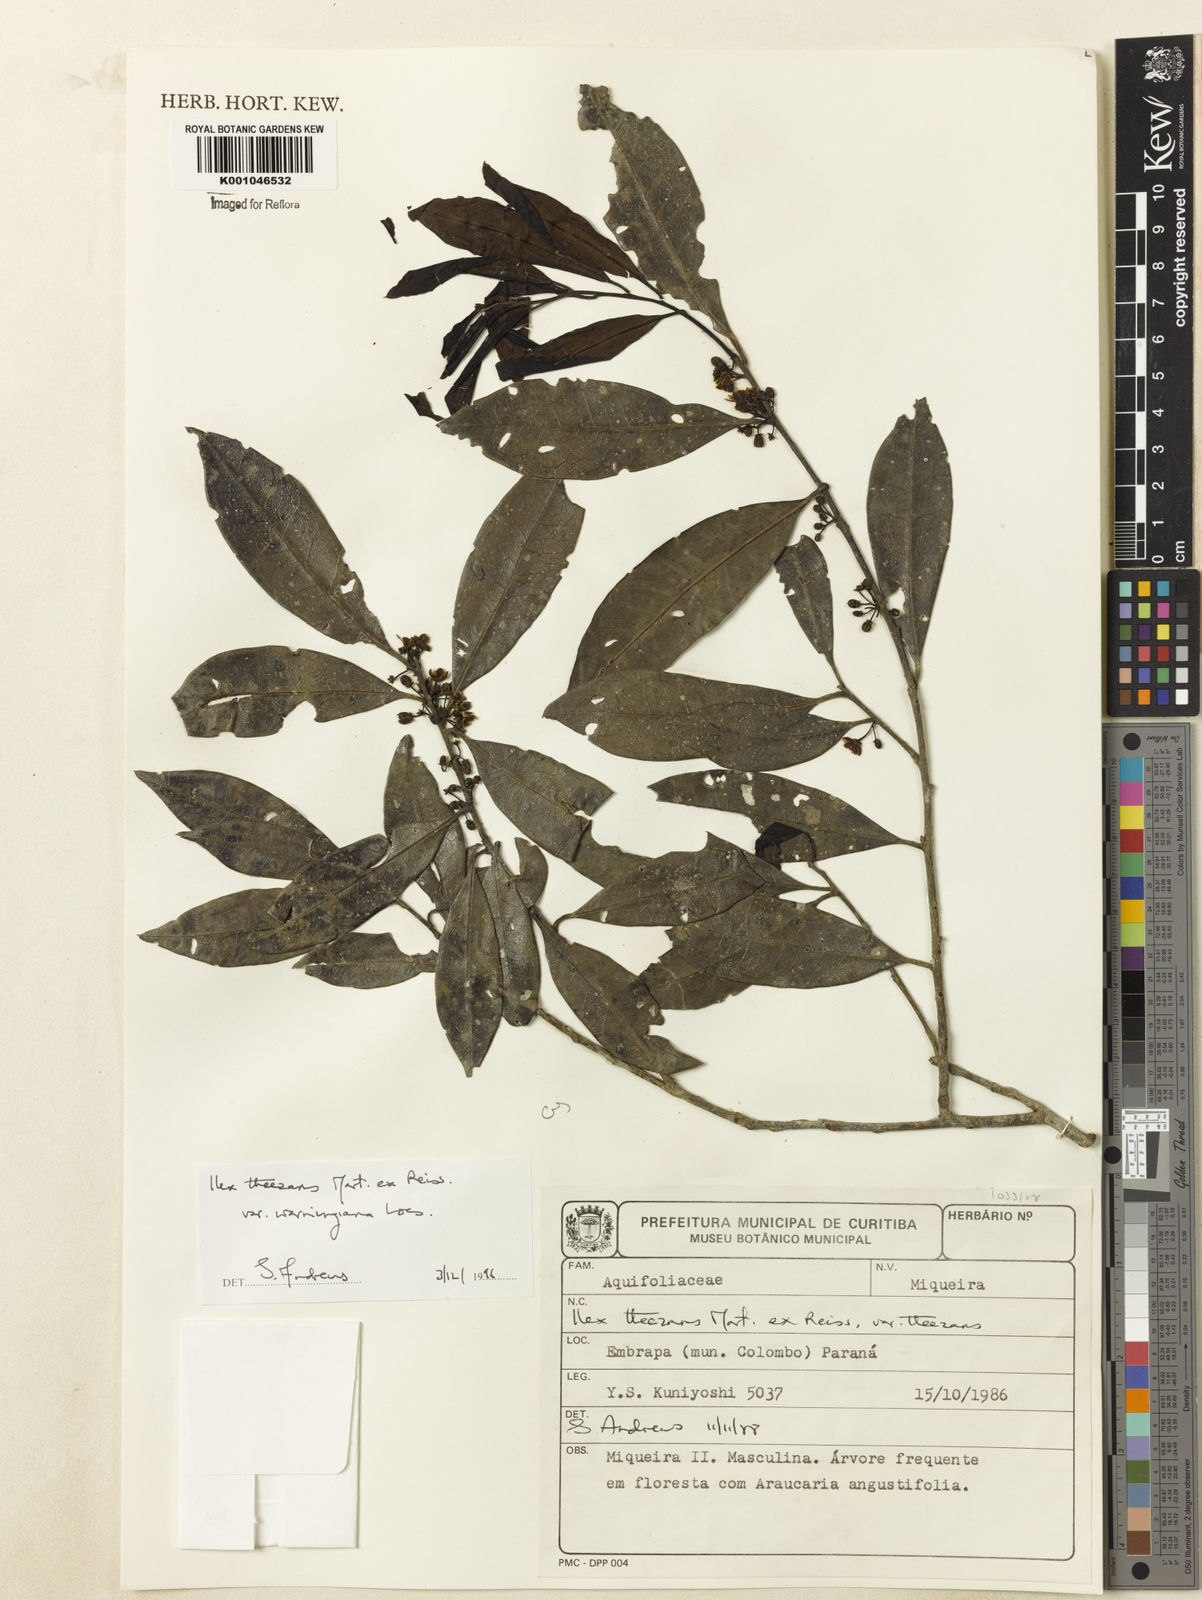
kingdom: Plantae
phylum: Tracheophyta
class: Magnoliopsida
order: Aquifoliales
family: Aquifoliaceae
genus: Ilex
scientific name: Ilex theezans
